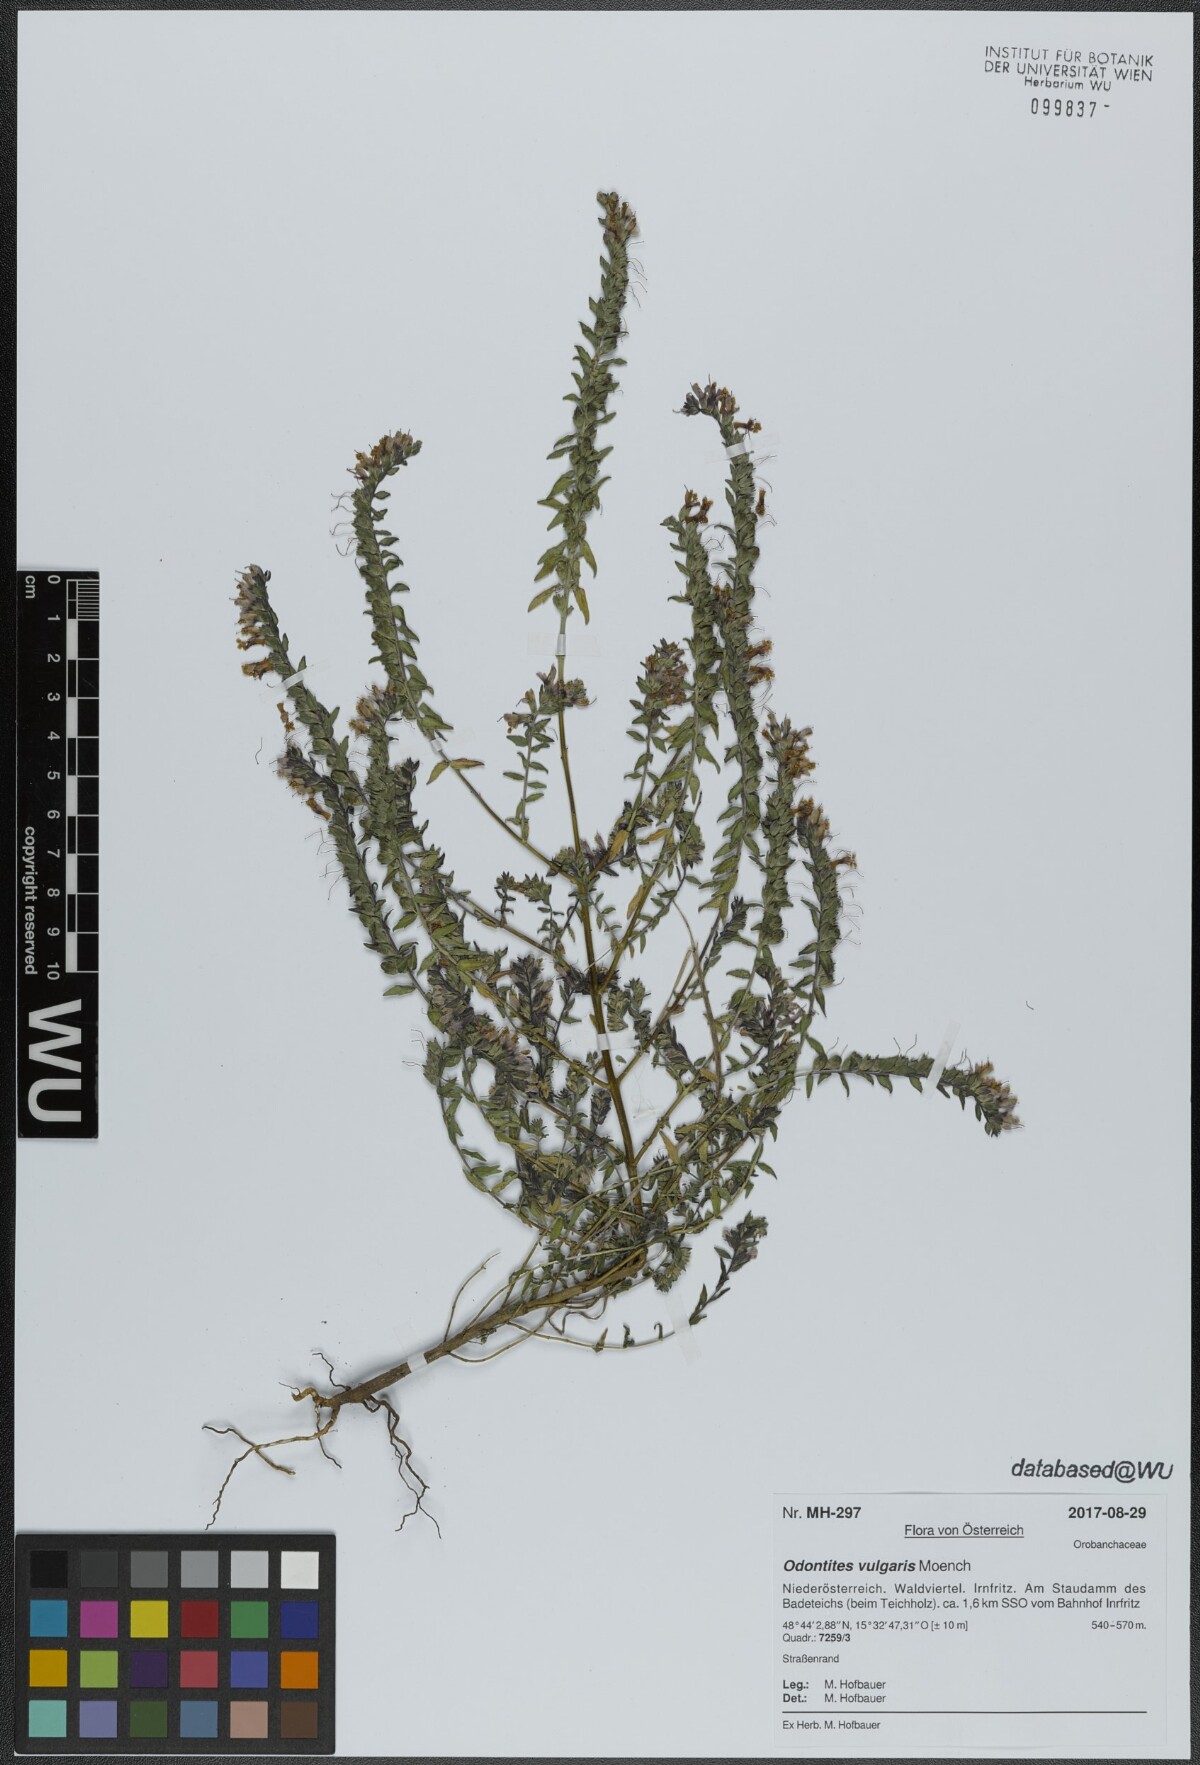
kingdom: Plantae
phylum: Tracheophyta
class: Magnoliopsida
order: Lamiales
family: Orobanchaceae
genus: Odontites
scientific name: Odontites vulgaris
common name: Broomrape
